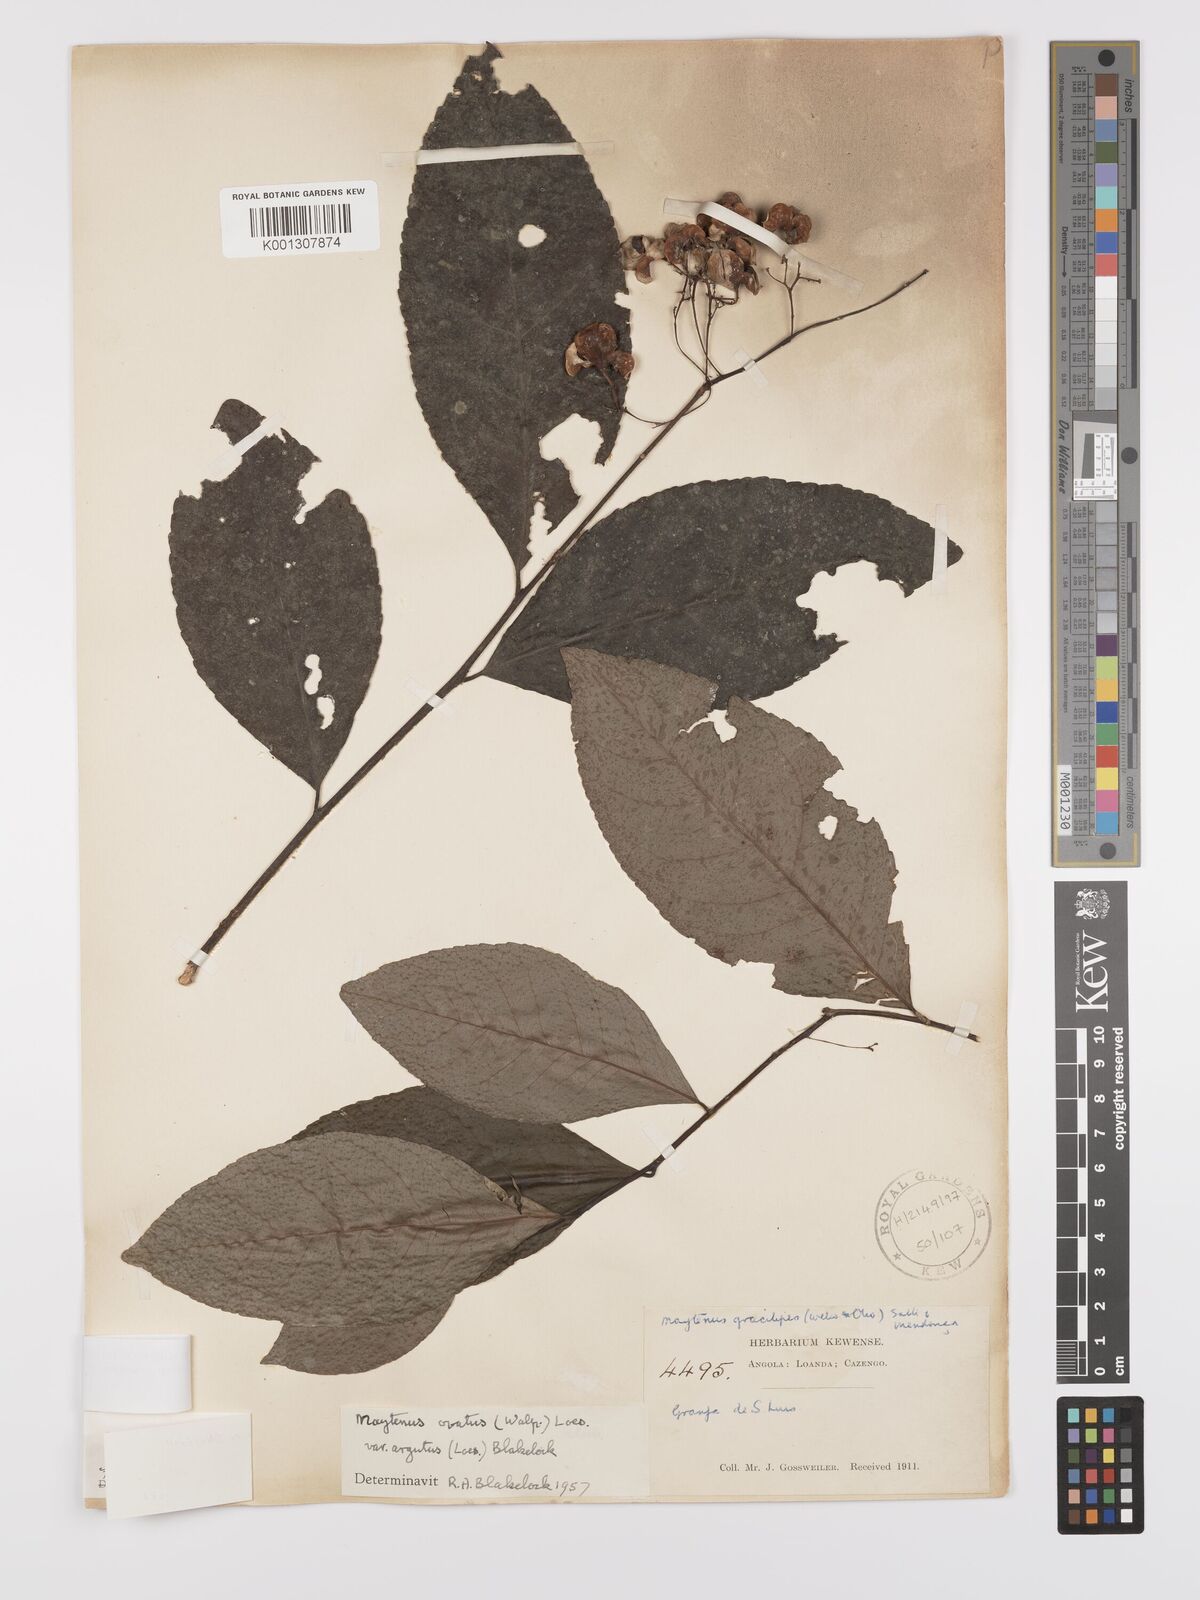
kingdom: Plantae
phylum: Tracheophyta
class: Magnoliopsida
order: Celastrales
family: Celastraceae
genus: Gymnosporia
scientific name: Gymnosporia gracilipes
